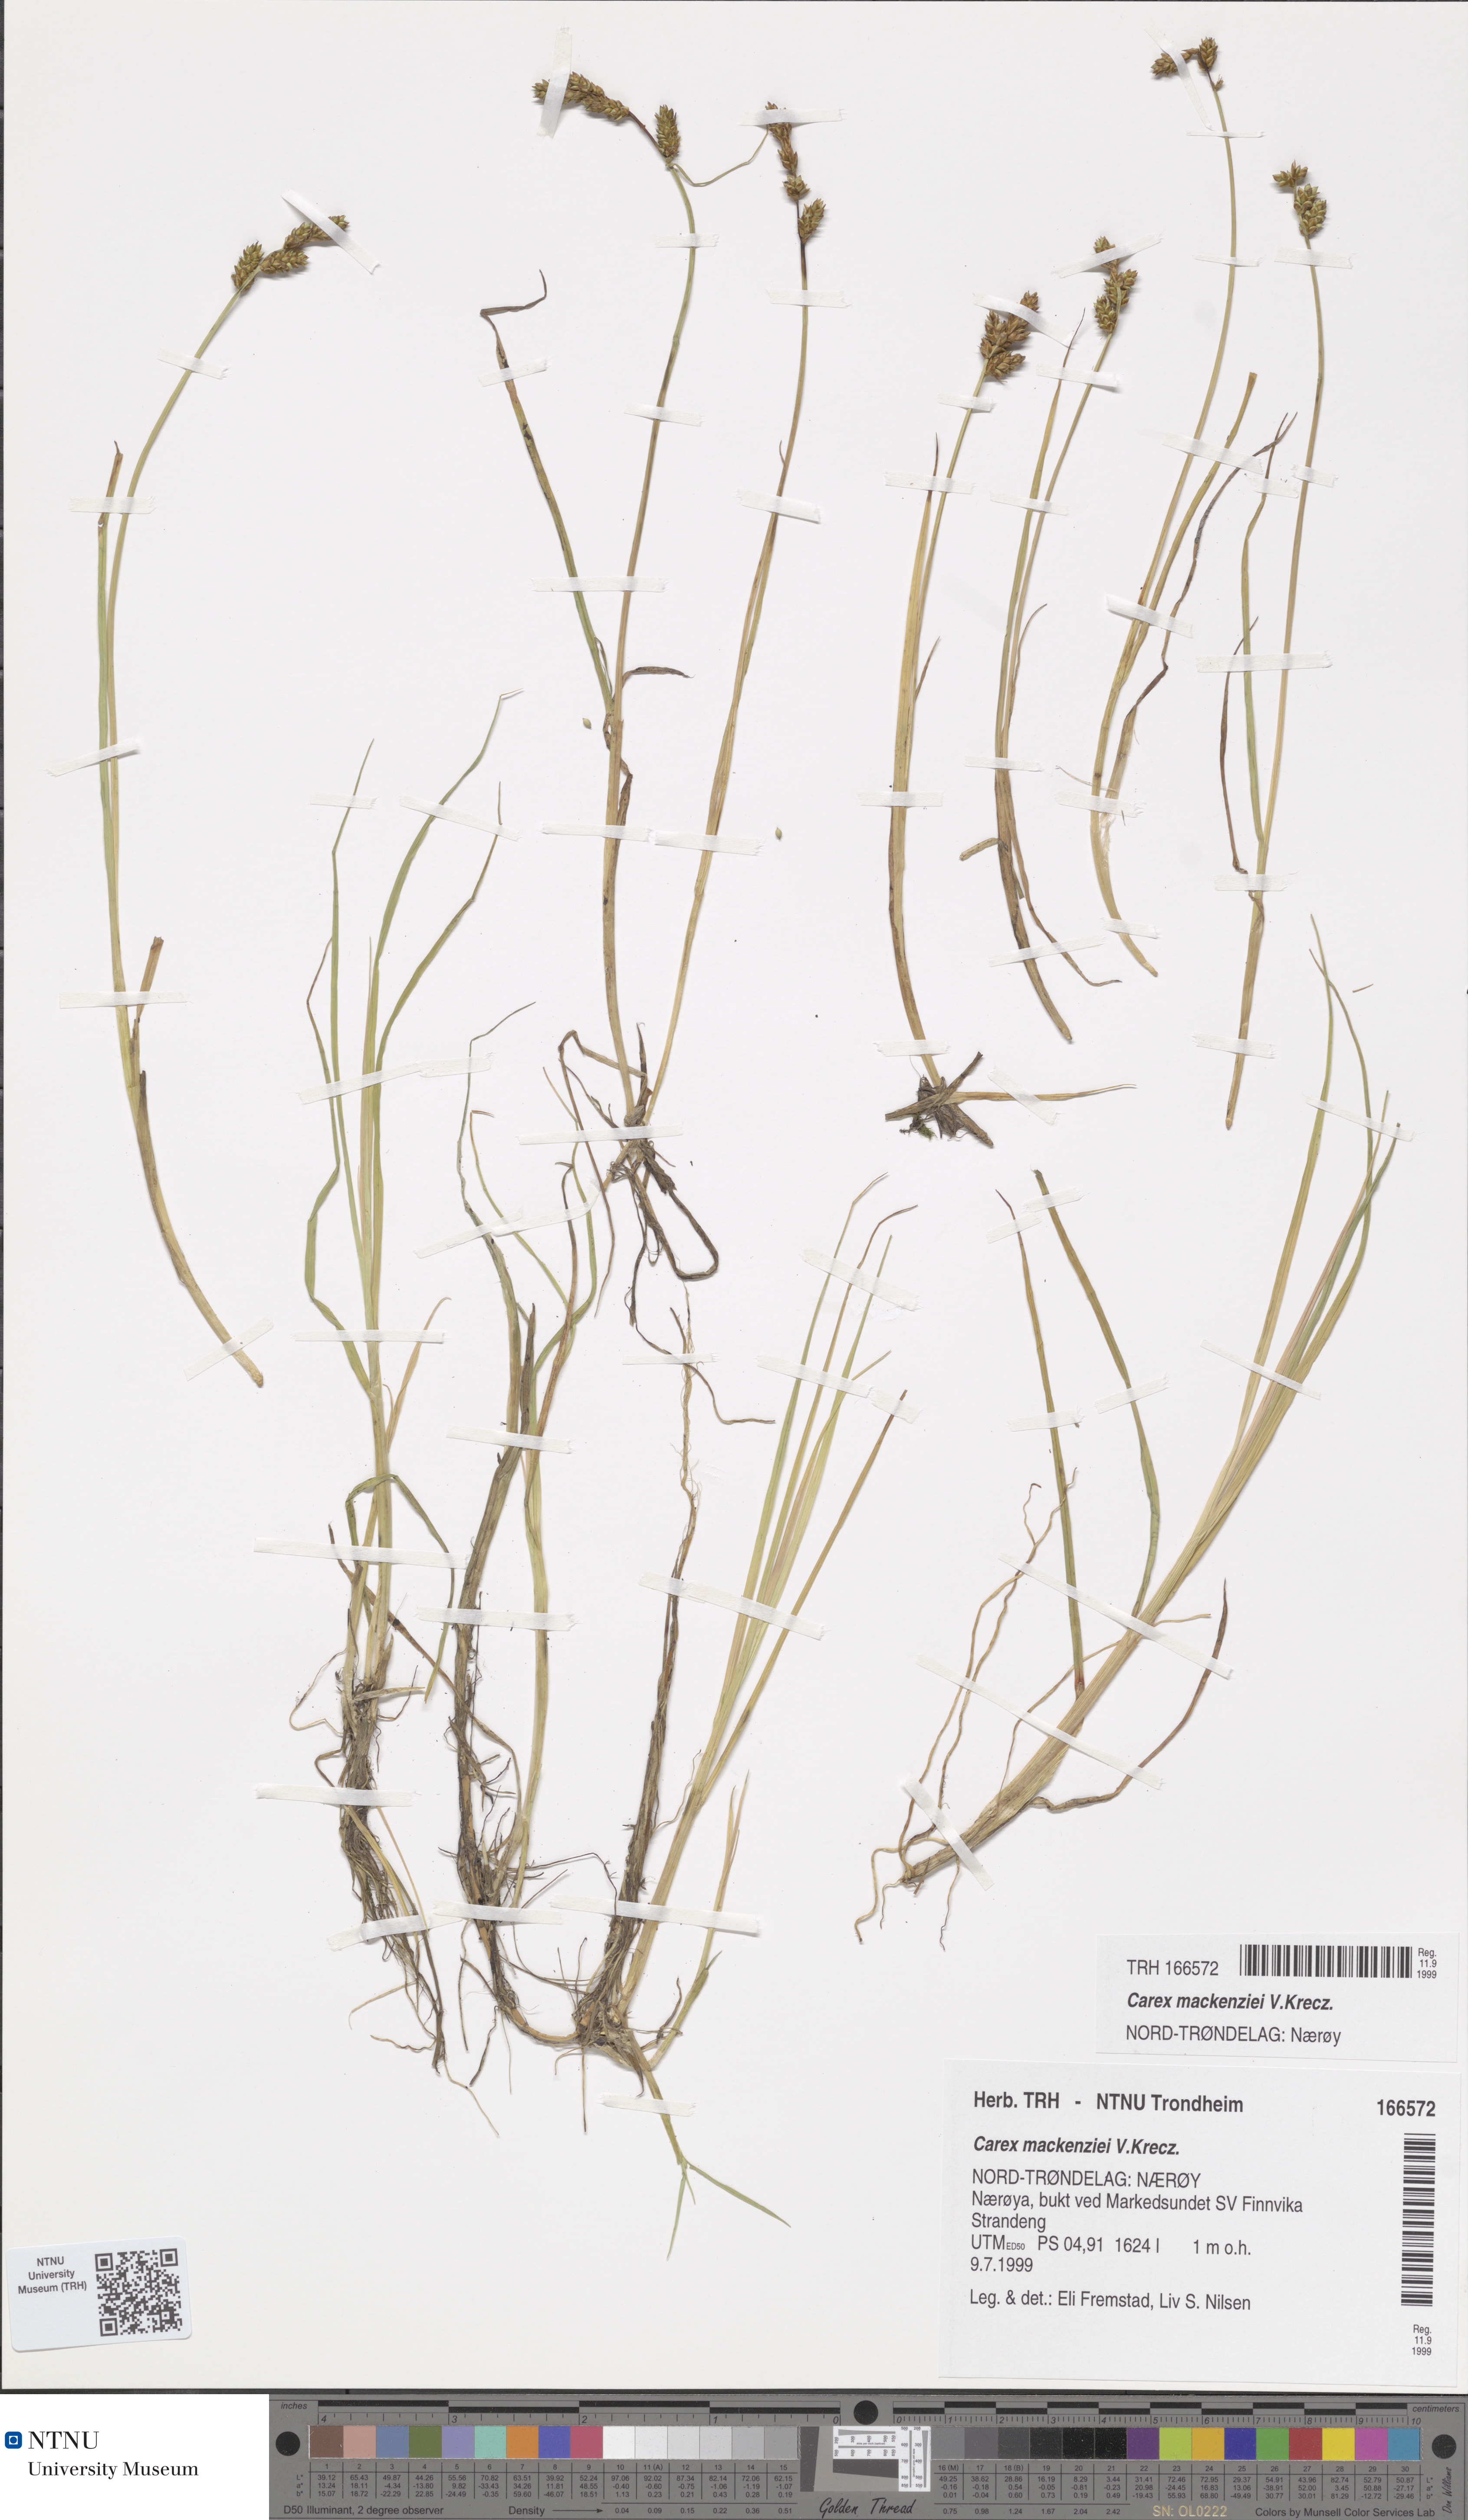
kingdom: Plantae
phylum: Tracheophyta
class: Liliopsida
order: Poales
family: Cyperaceae
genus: Carex
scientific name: Carex mackenziei
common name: Mackenzie's sedge
